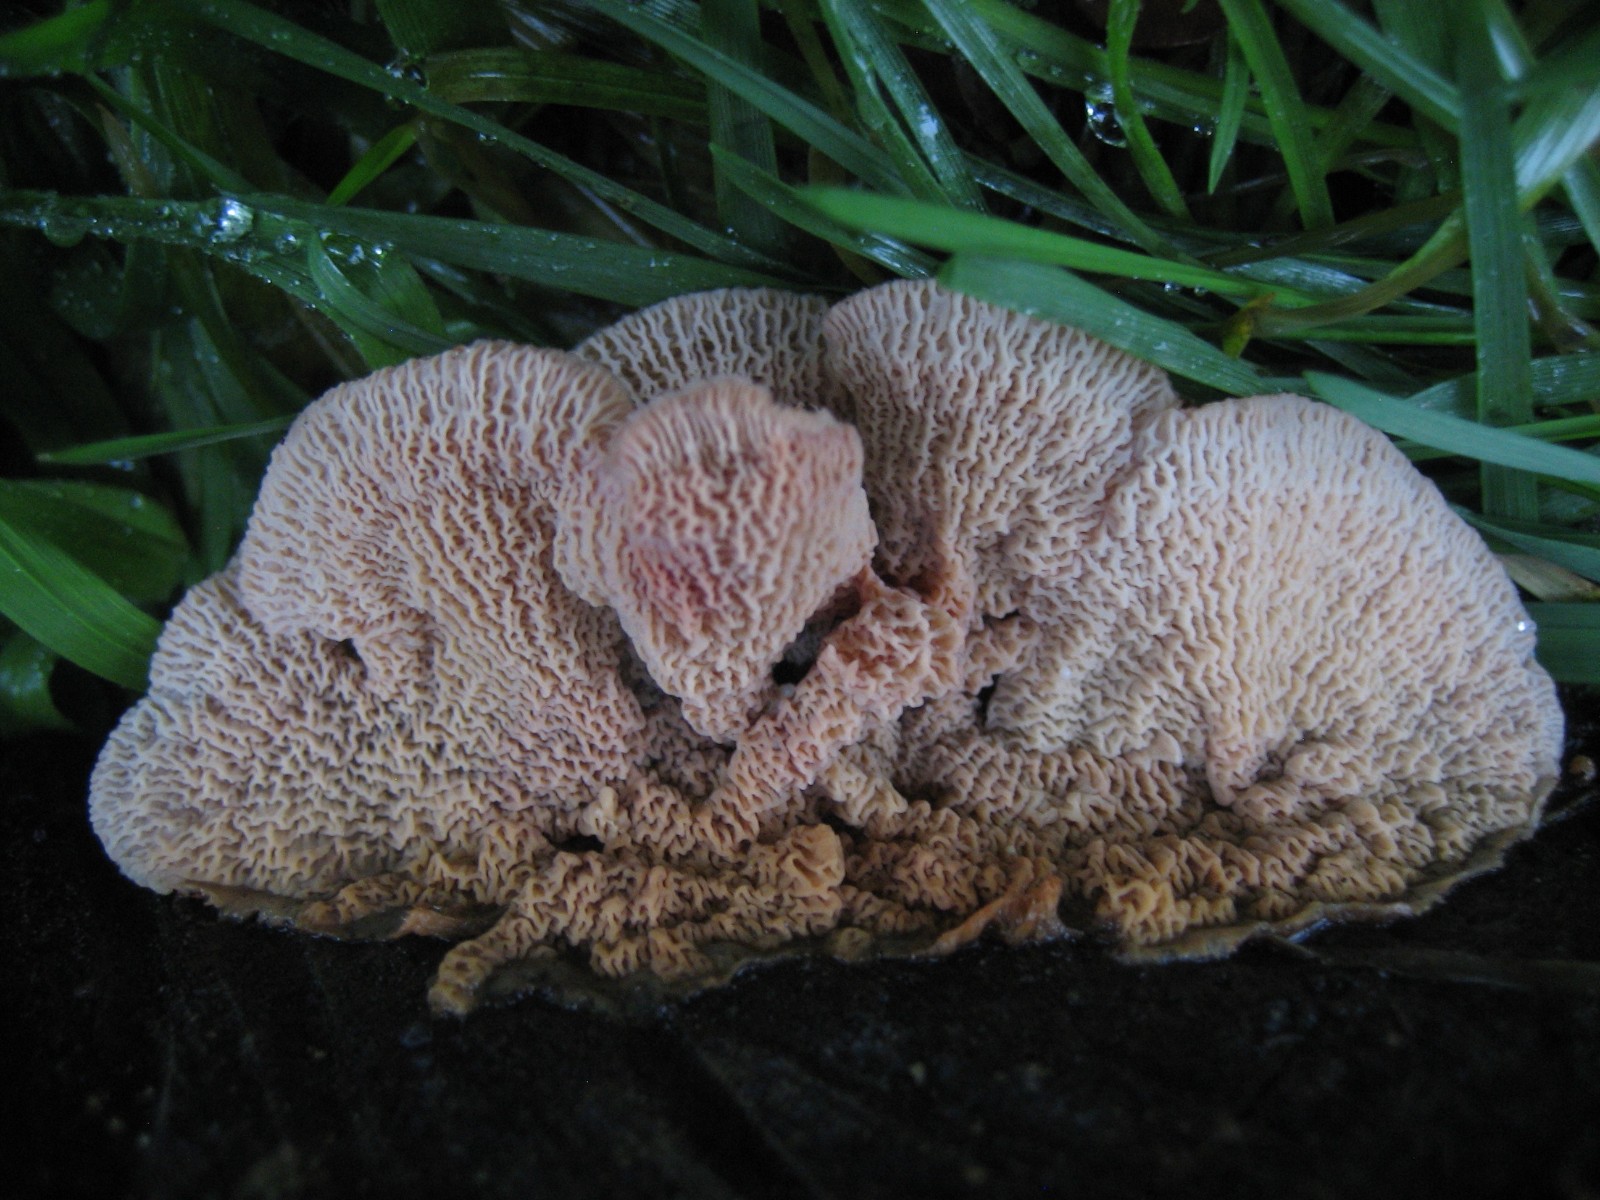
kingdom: Fungi
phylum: Basidiomycota
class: Agaricomycetes
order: Polyporales
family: Meruliaceae
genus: Phlebia
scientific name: Phlebia tremellosa
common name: bævrende åresvamp
